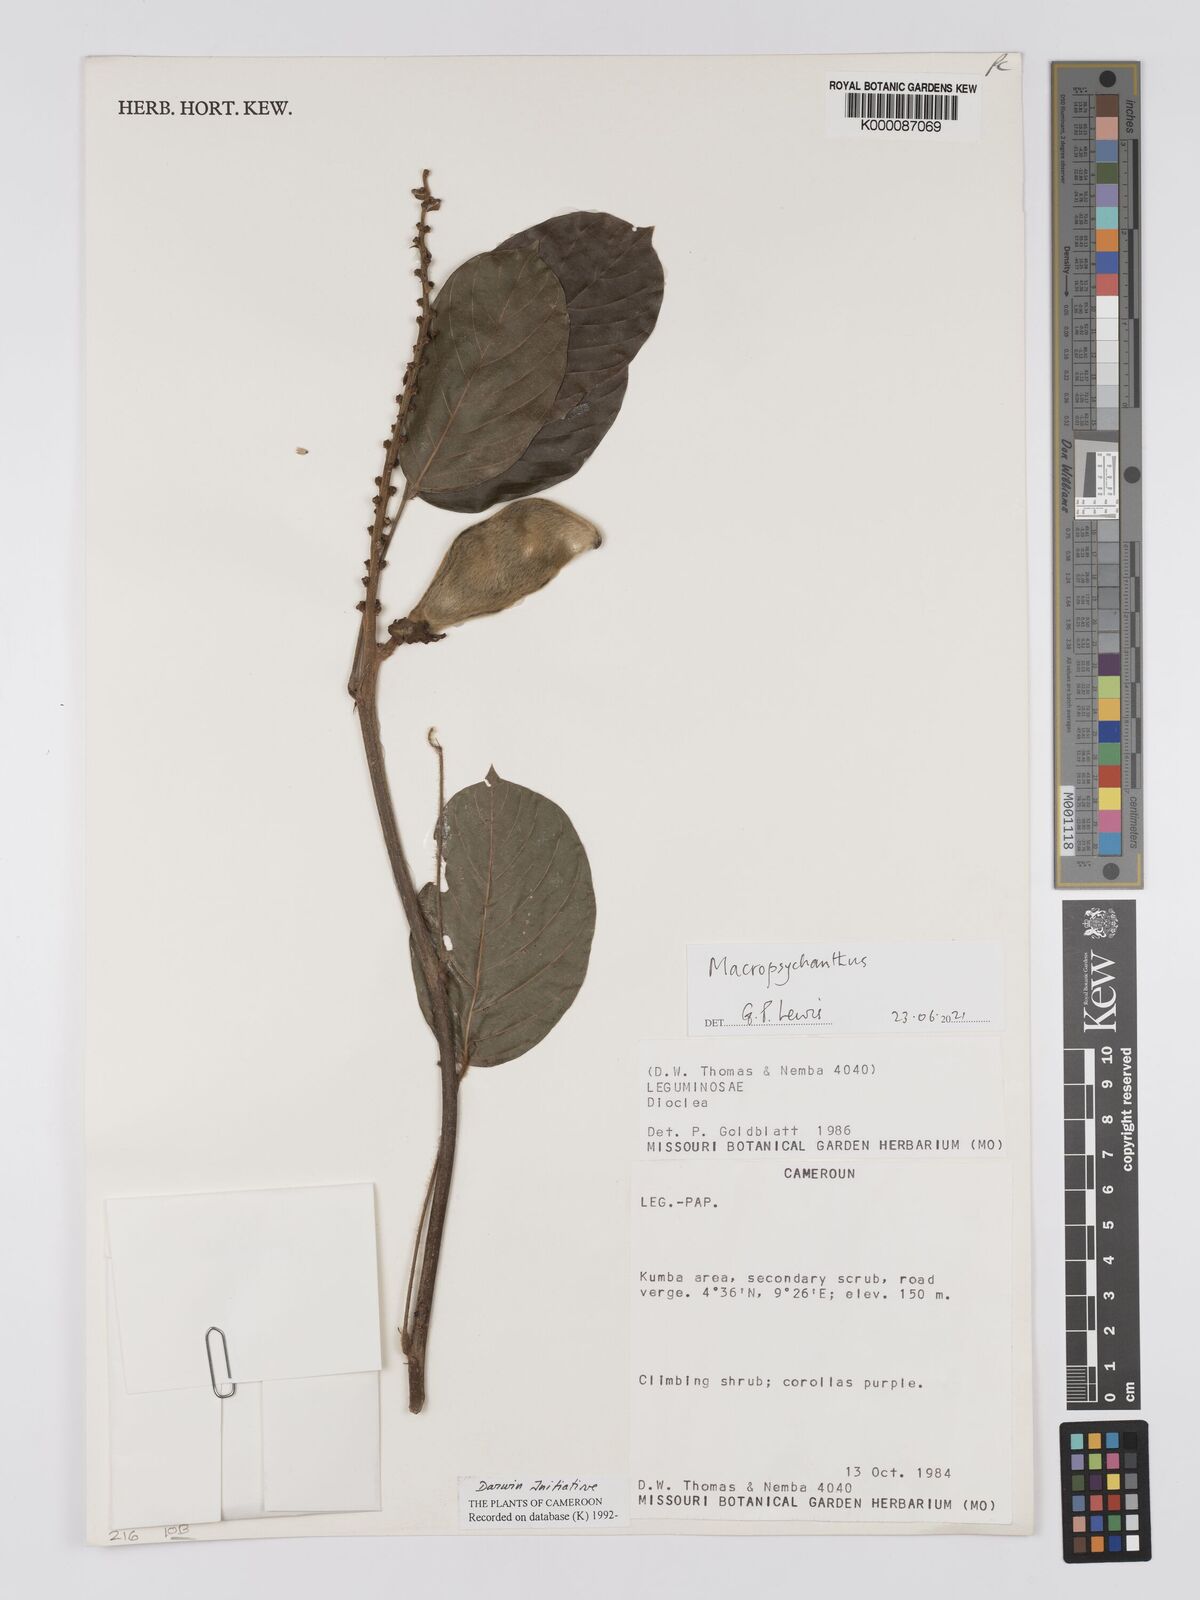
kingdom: Plantae
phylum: Tracheophyta
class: Magnoliopsida
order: Fabales
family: Fabaceae
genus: Dioclea
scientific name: Dioclea
